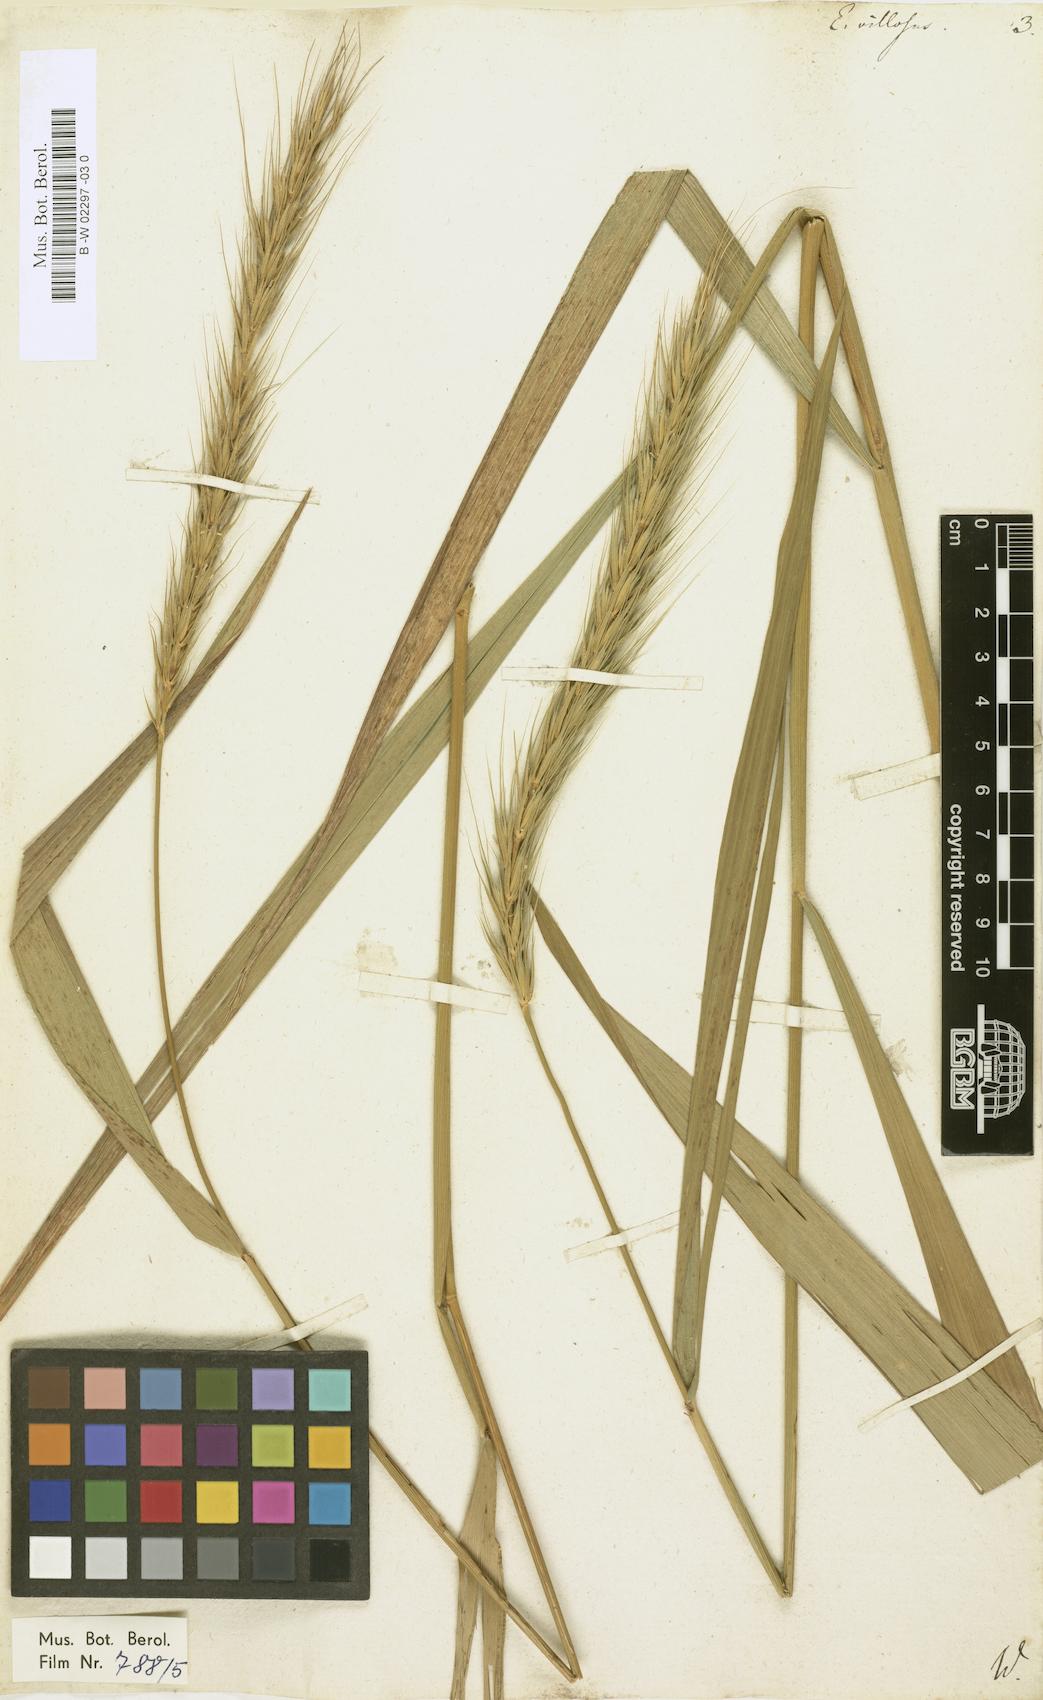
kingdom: Plantae
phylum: Tracheophyta
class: Liliopsida
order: Poales
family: Poaceae
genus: Elymus
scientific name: Elymus villosus
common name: Downy wild rye
